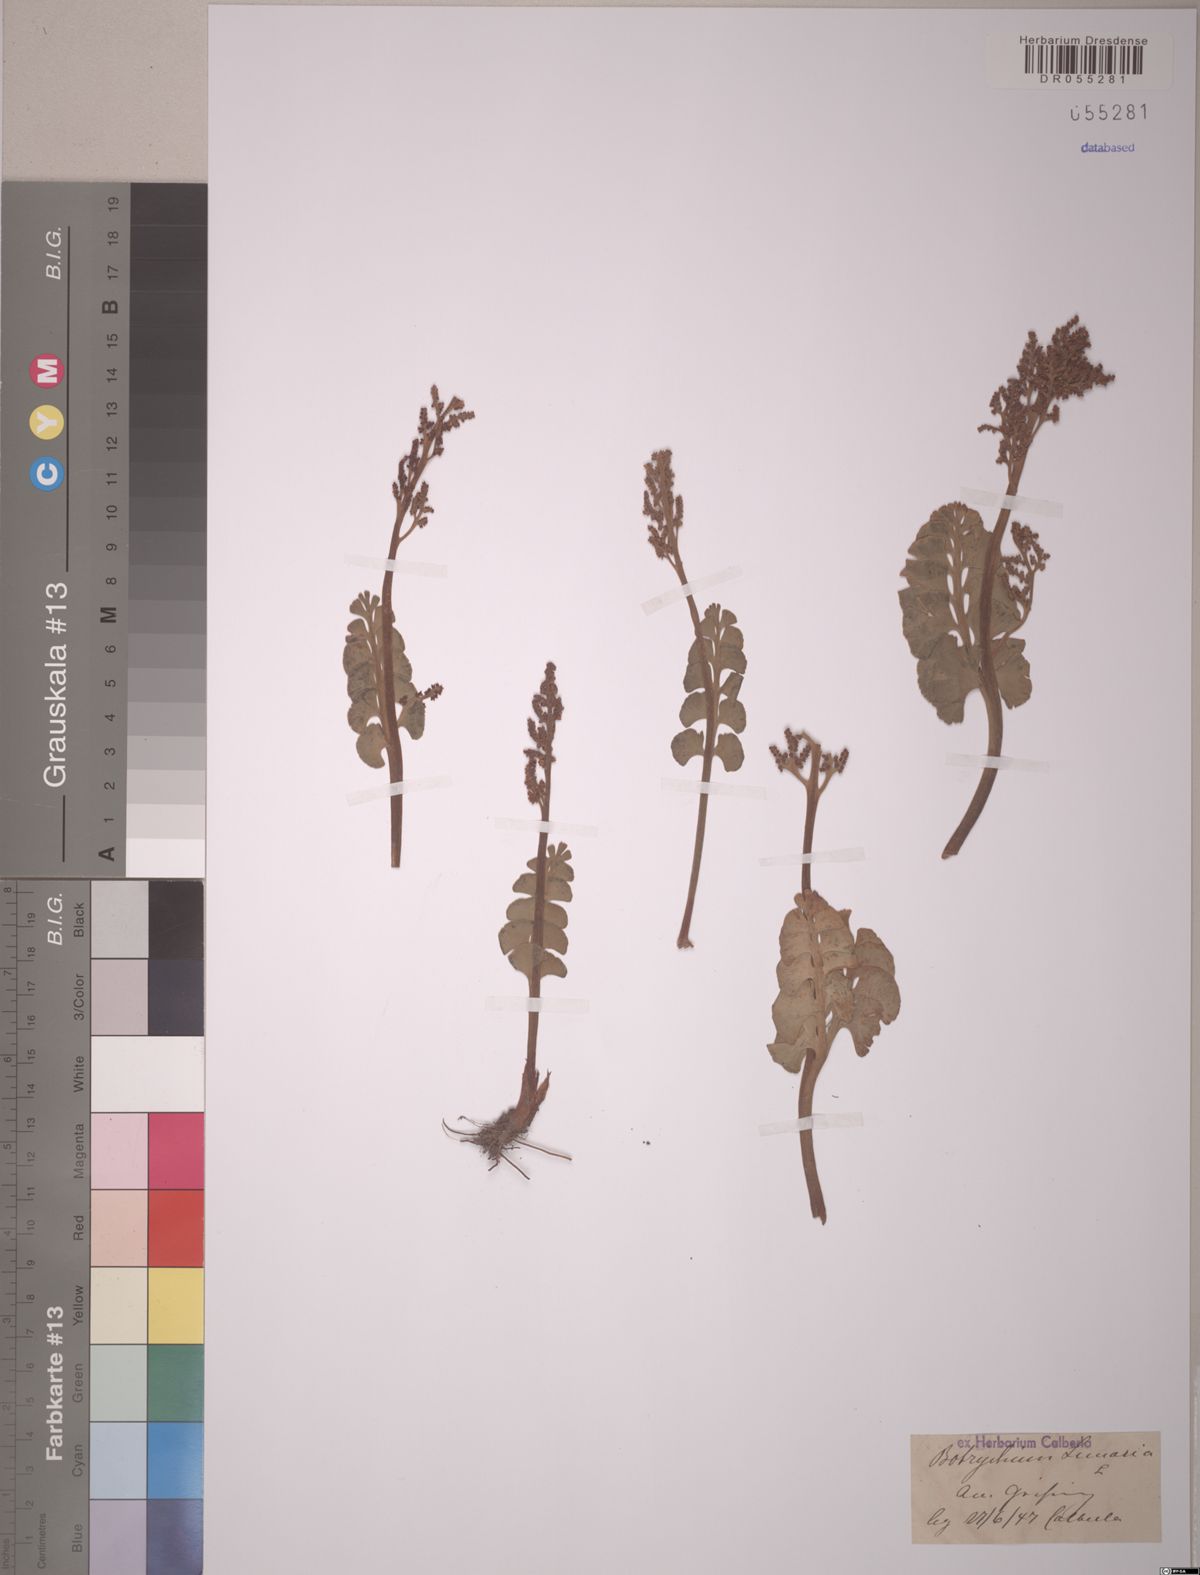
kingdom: Plantae
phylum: Tracheophyta
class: Polypodiopsida
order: Ophioglossales
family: Ophioglossaceae
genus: Botrychium
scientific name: Botrychium lunaria
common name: Moonwort
